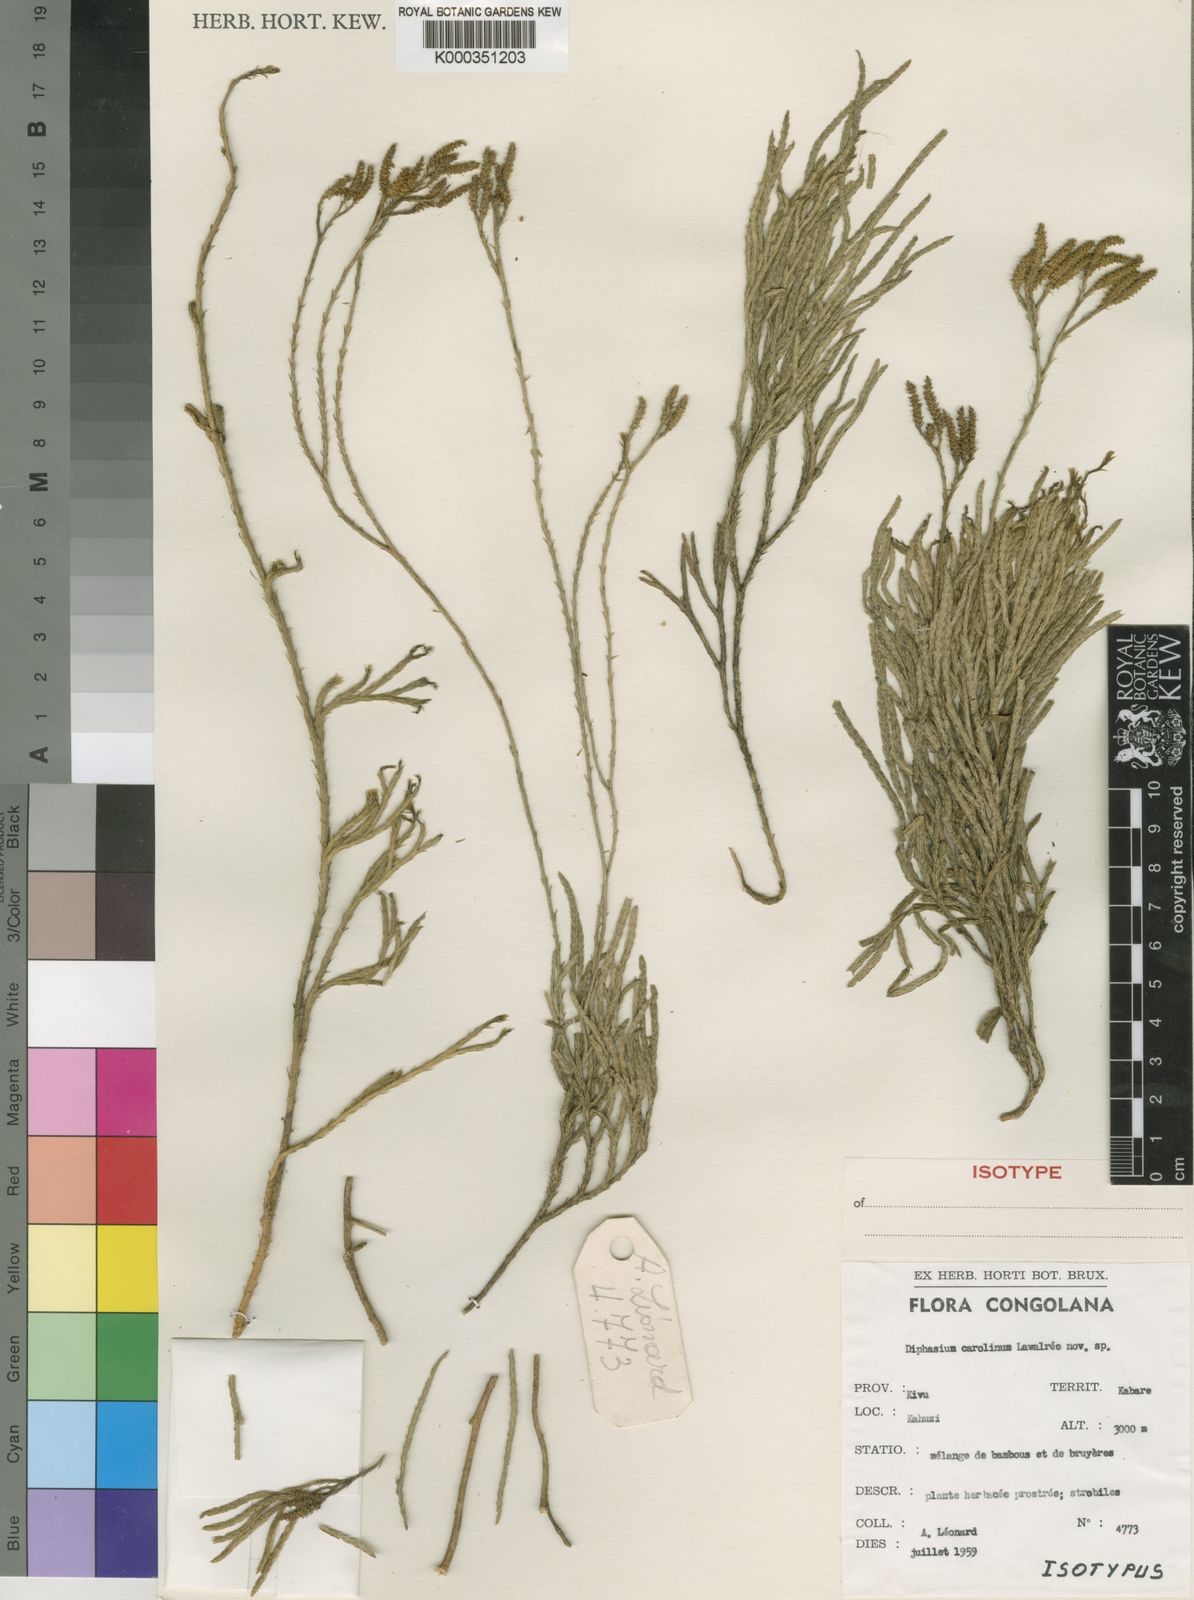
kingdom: Plantae
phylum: Tracheophyta
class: Lycopodiopsida
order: Lycopodiales
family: Lycopodiaceae
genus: Pseudolycopodiella
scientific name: Pseudolycopodiella caroliniana
